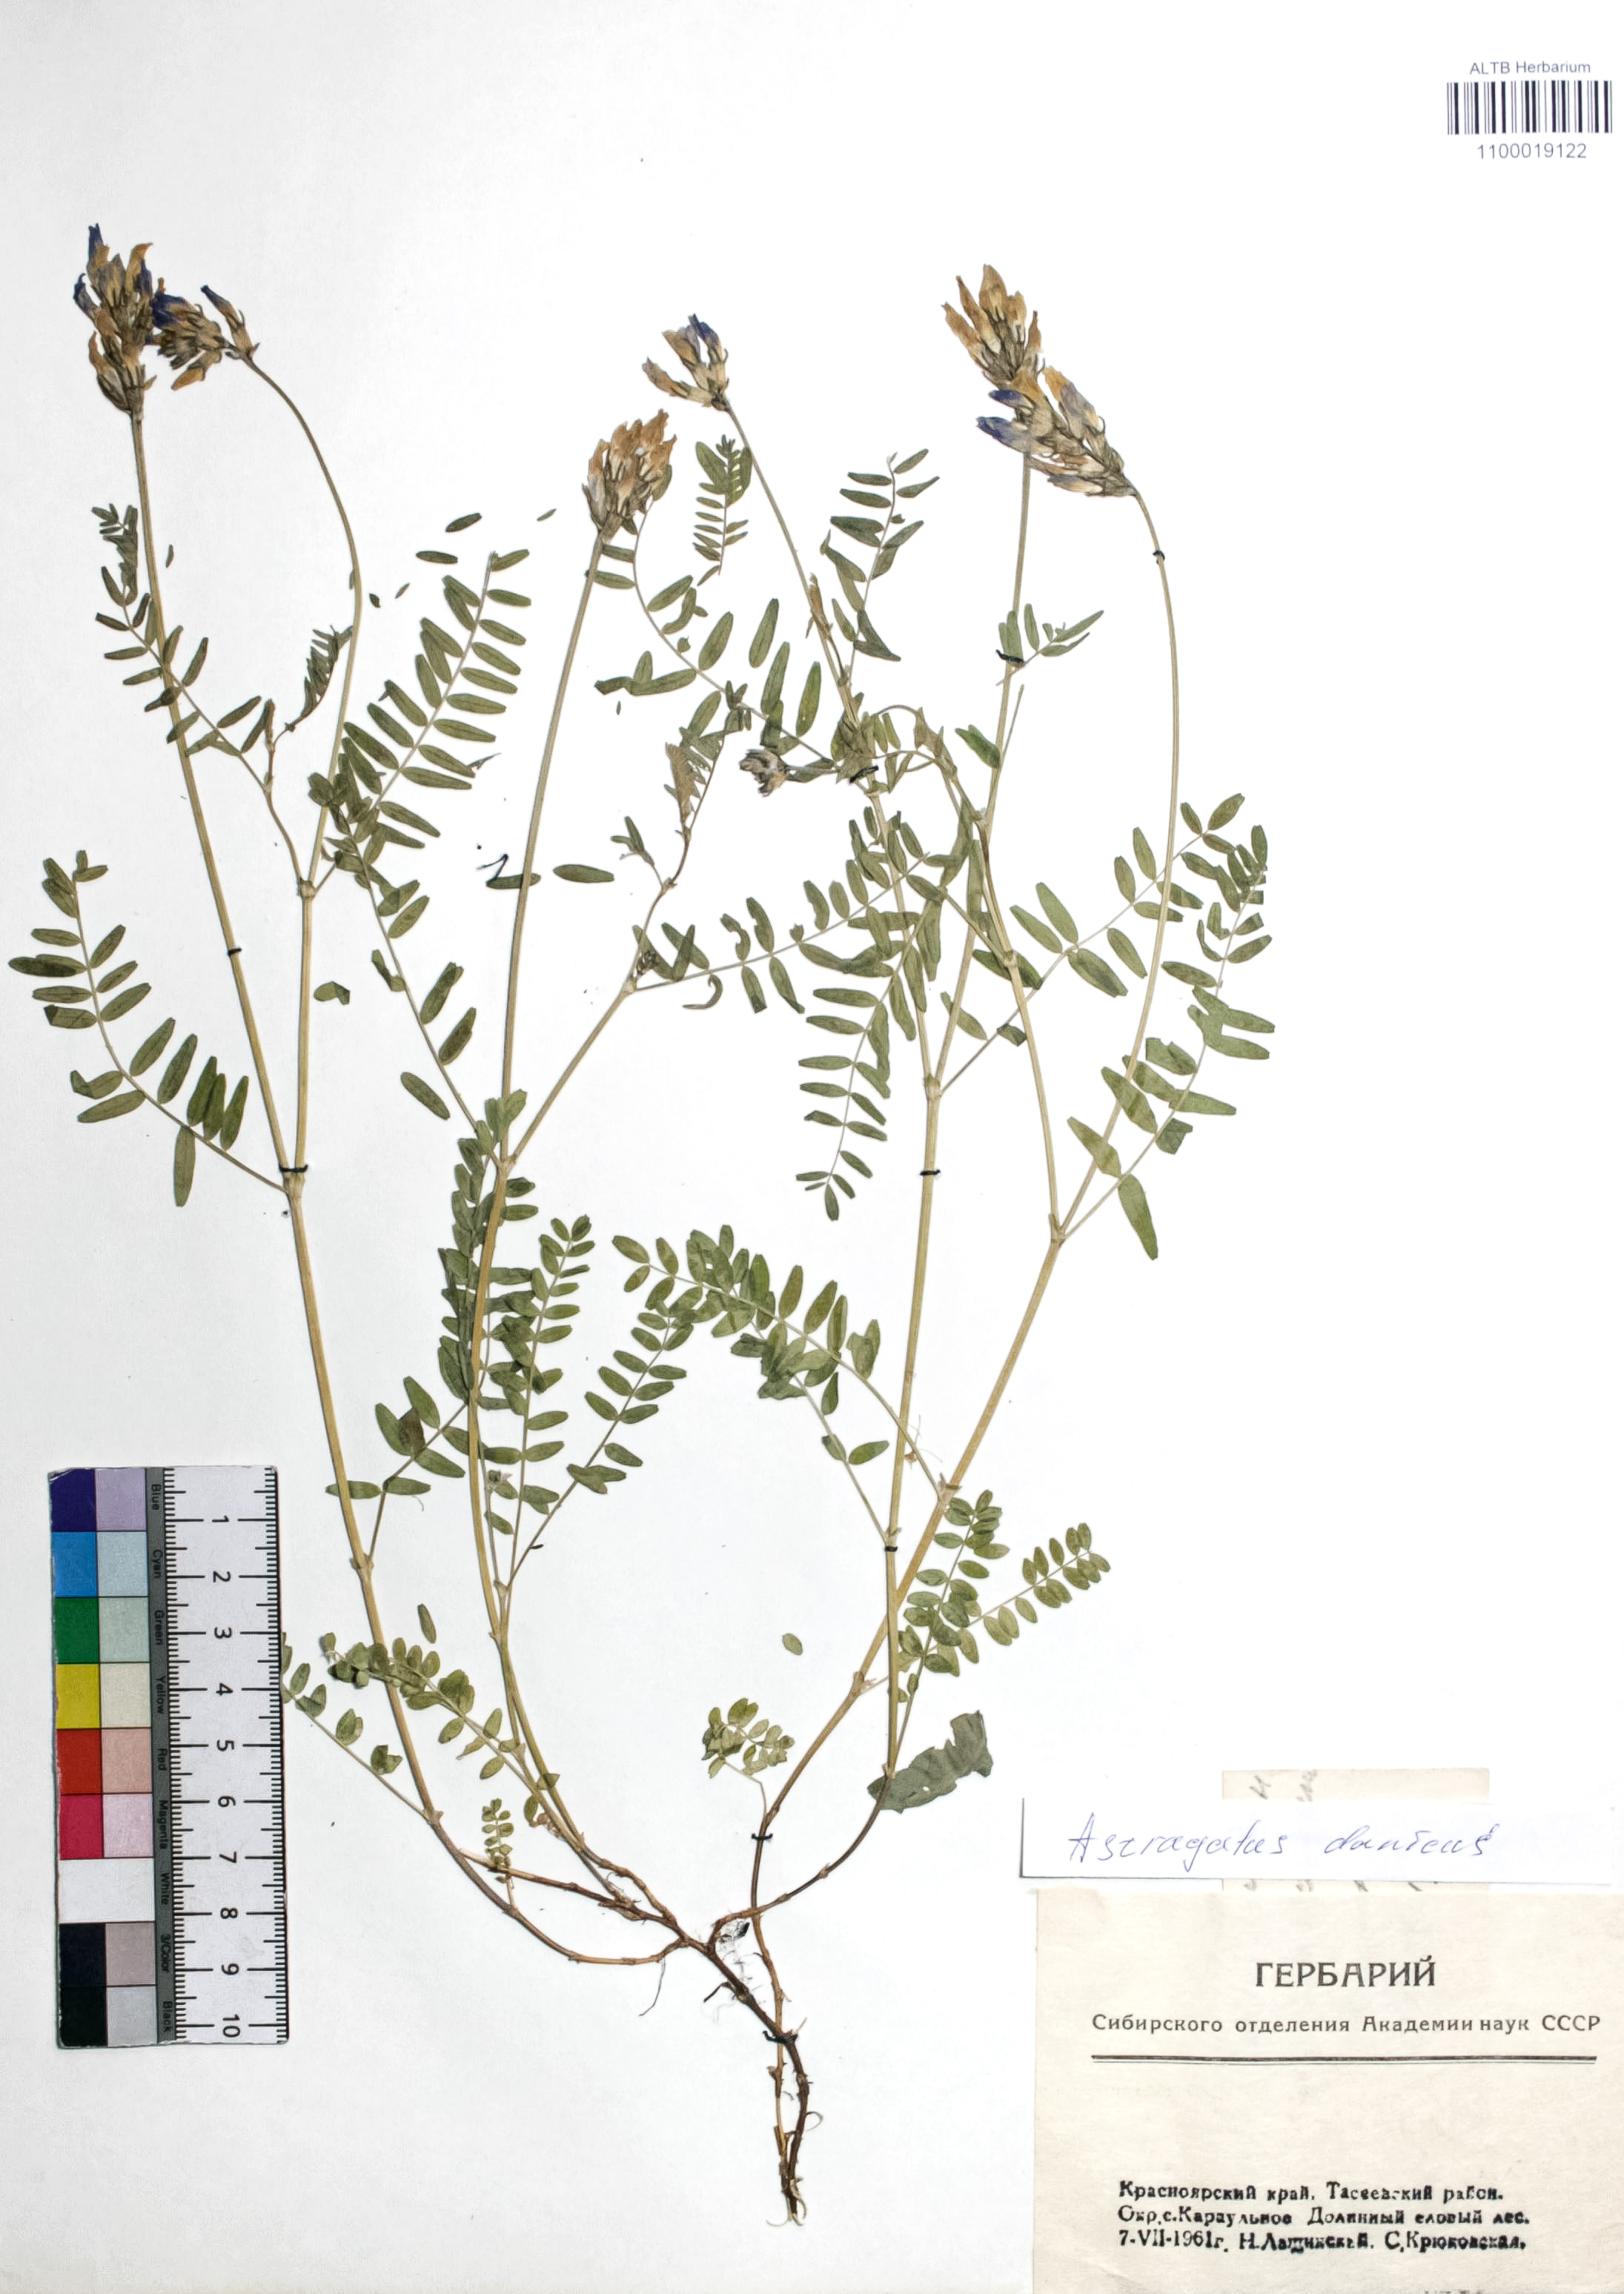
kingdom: Plantae
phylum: Tracheophyta
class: Magnoliopsida
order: Fabales
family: Fabaceae
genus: Astragalus
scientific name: Astragalus danicus
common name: Purple milk-vetch
